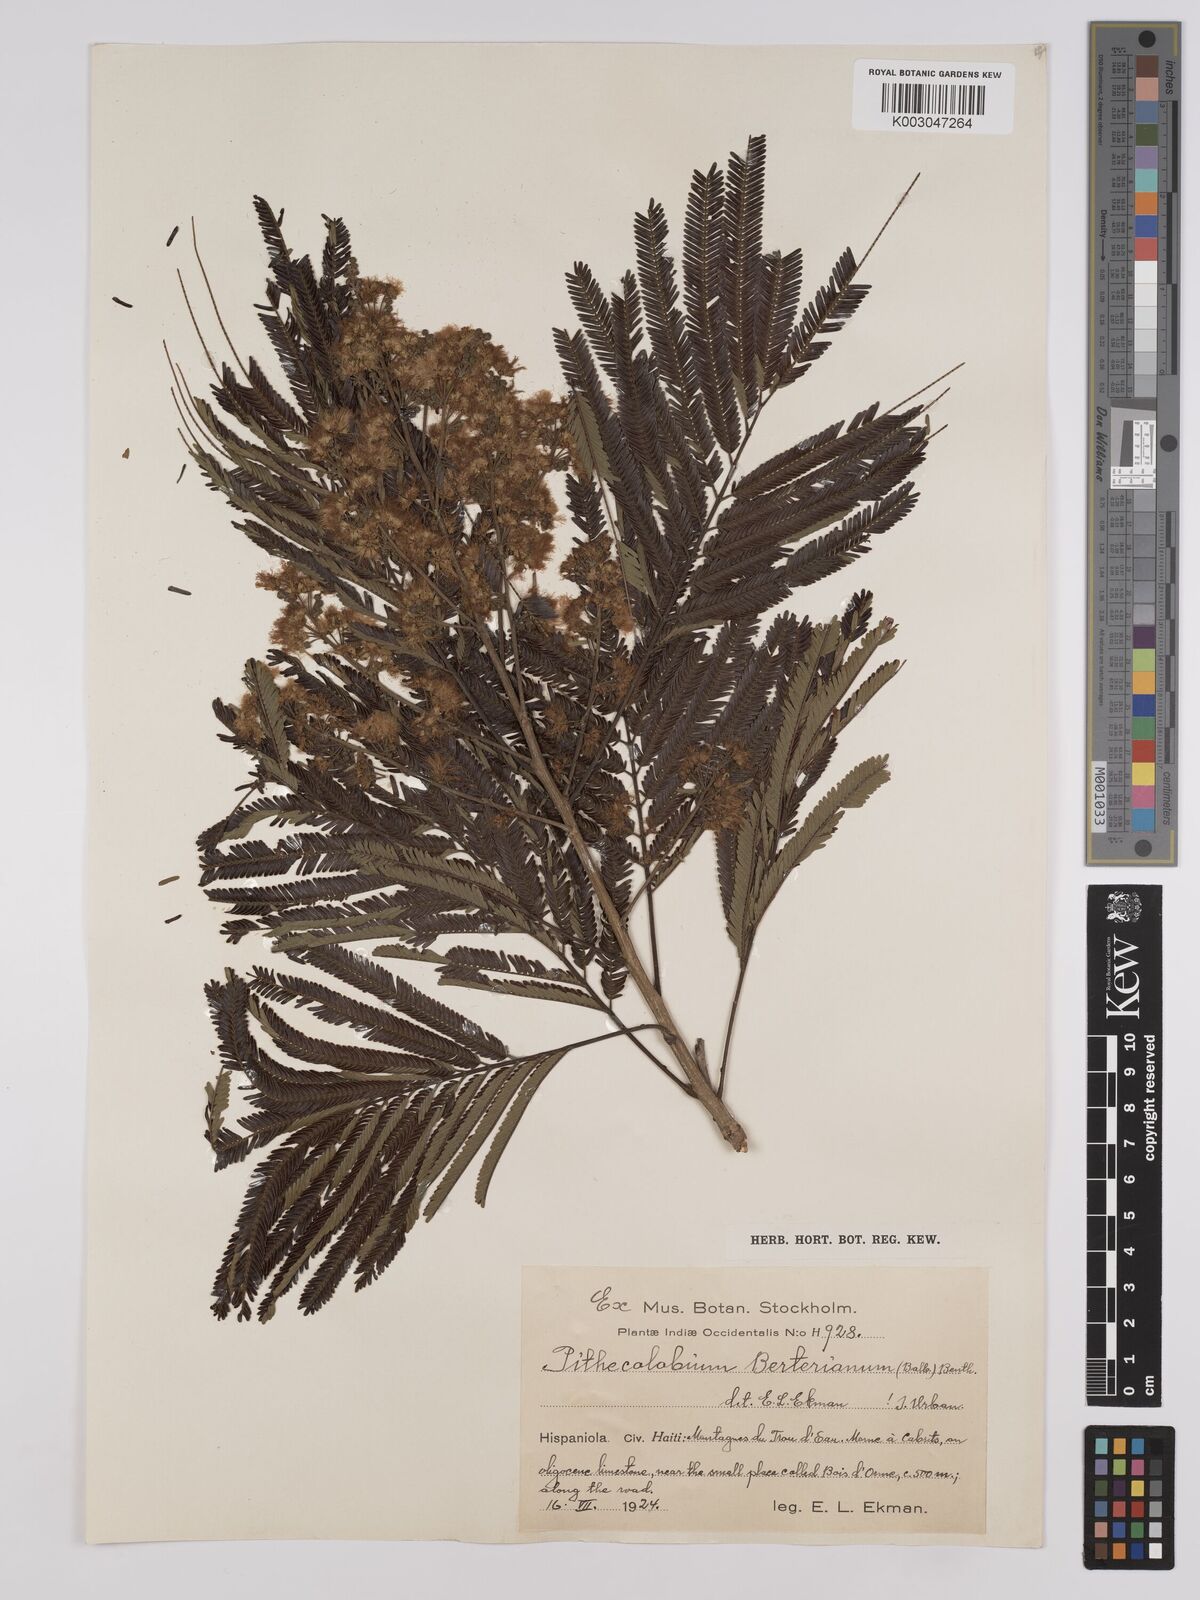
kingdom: Plantae
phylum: Tracheophyta
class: Magnoliopsida
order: Fabales
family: Fabaceae
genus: Albizia
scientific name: Albizia
